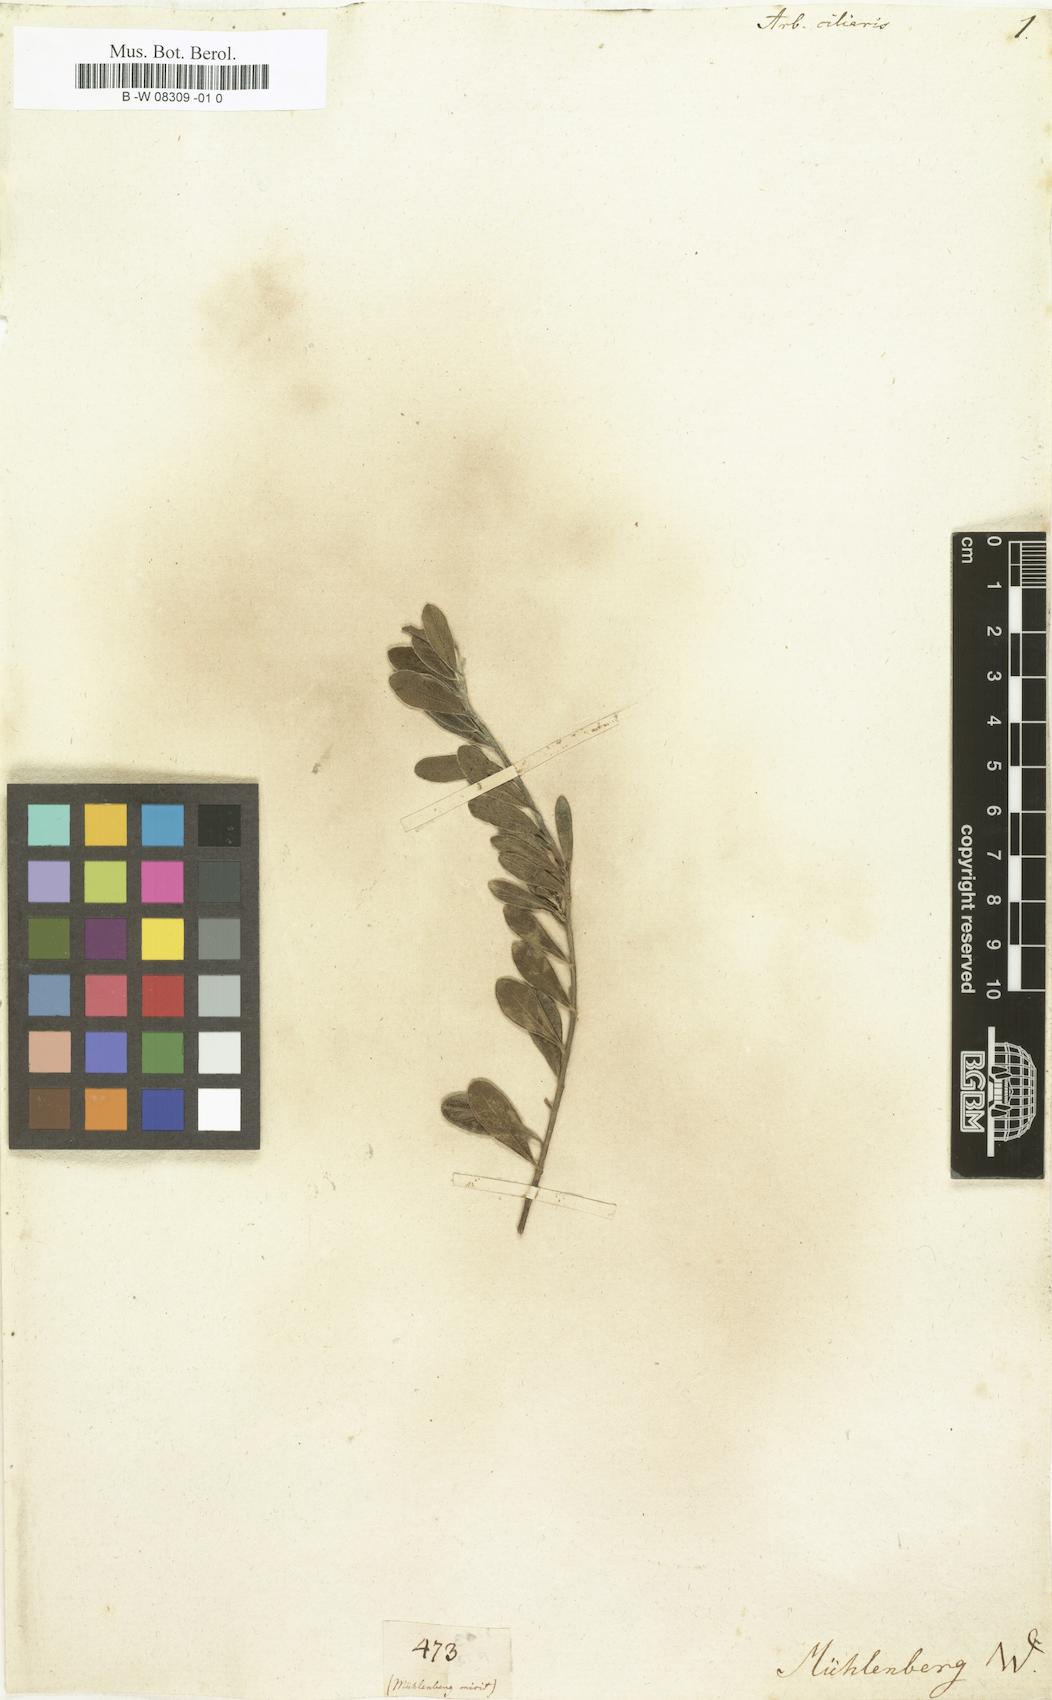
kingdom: Plantae
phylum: Tracheophyta
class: Magnoliopsida
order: Ericales
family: Ericaceae
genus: Arbutus
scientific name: Arbutus
